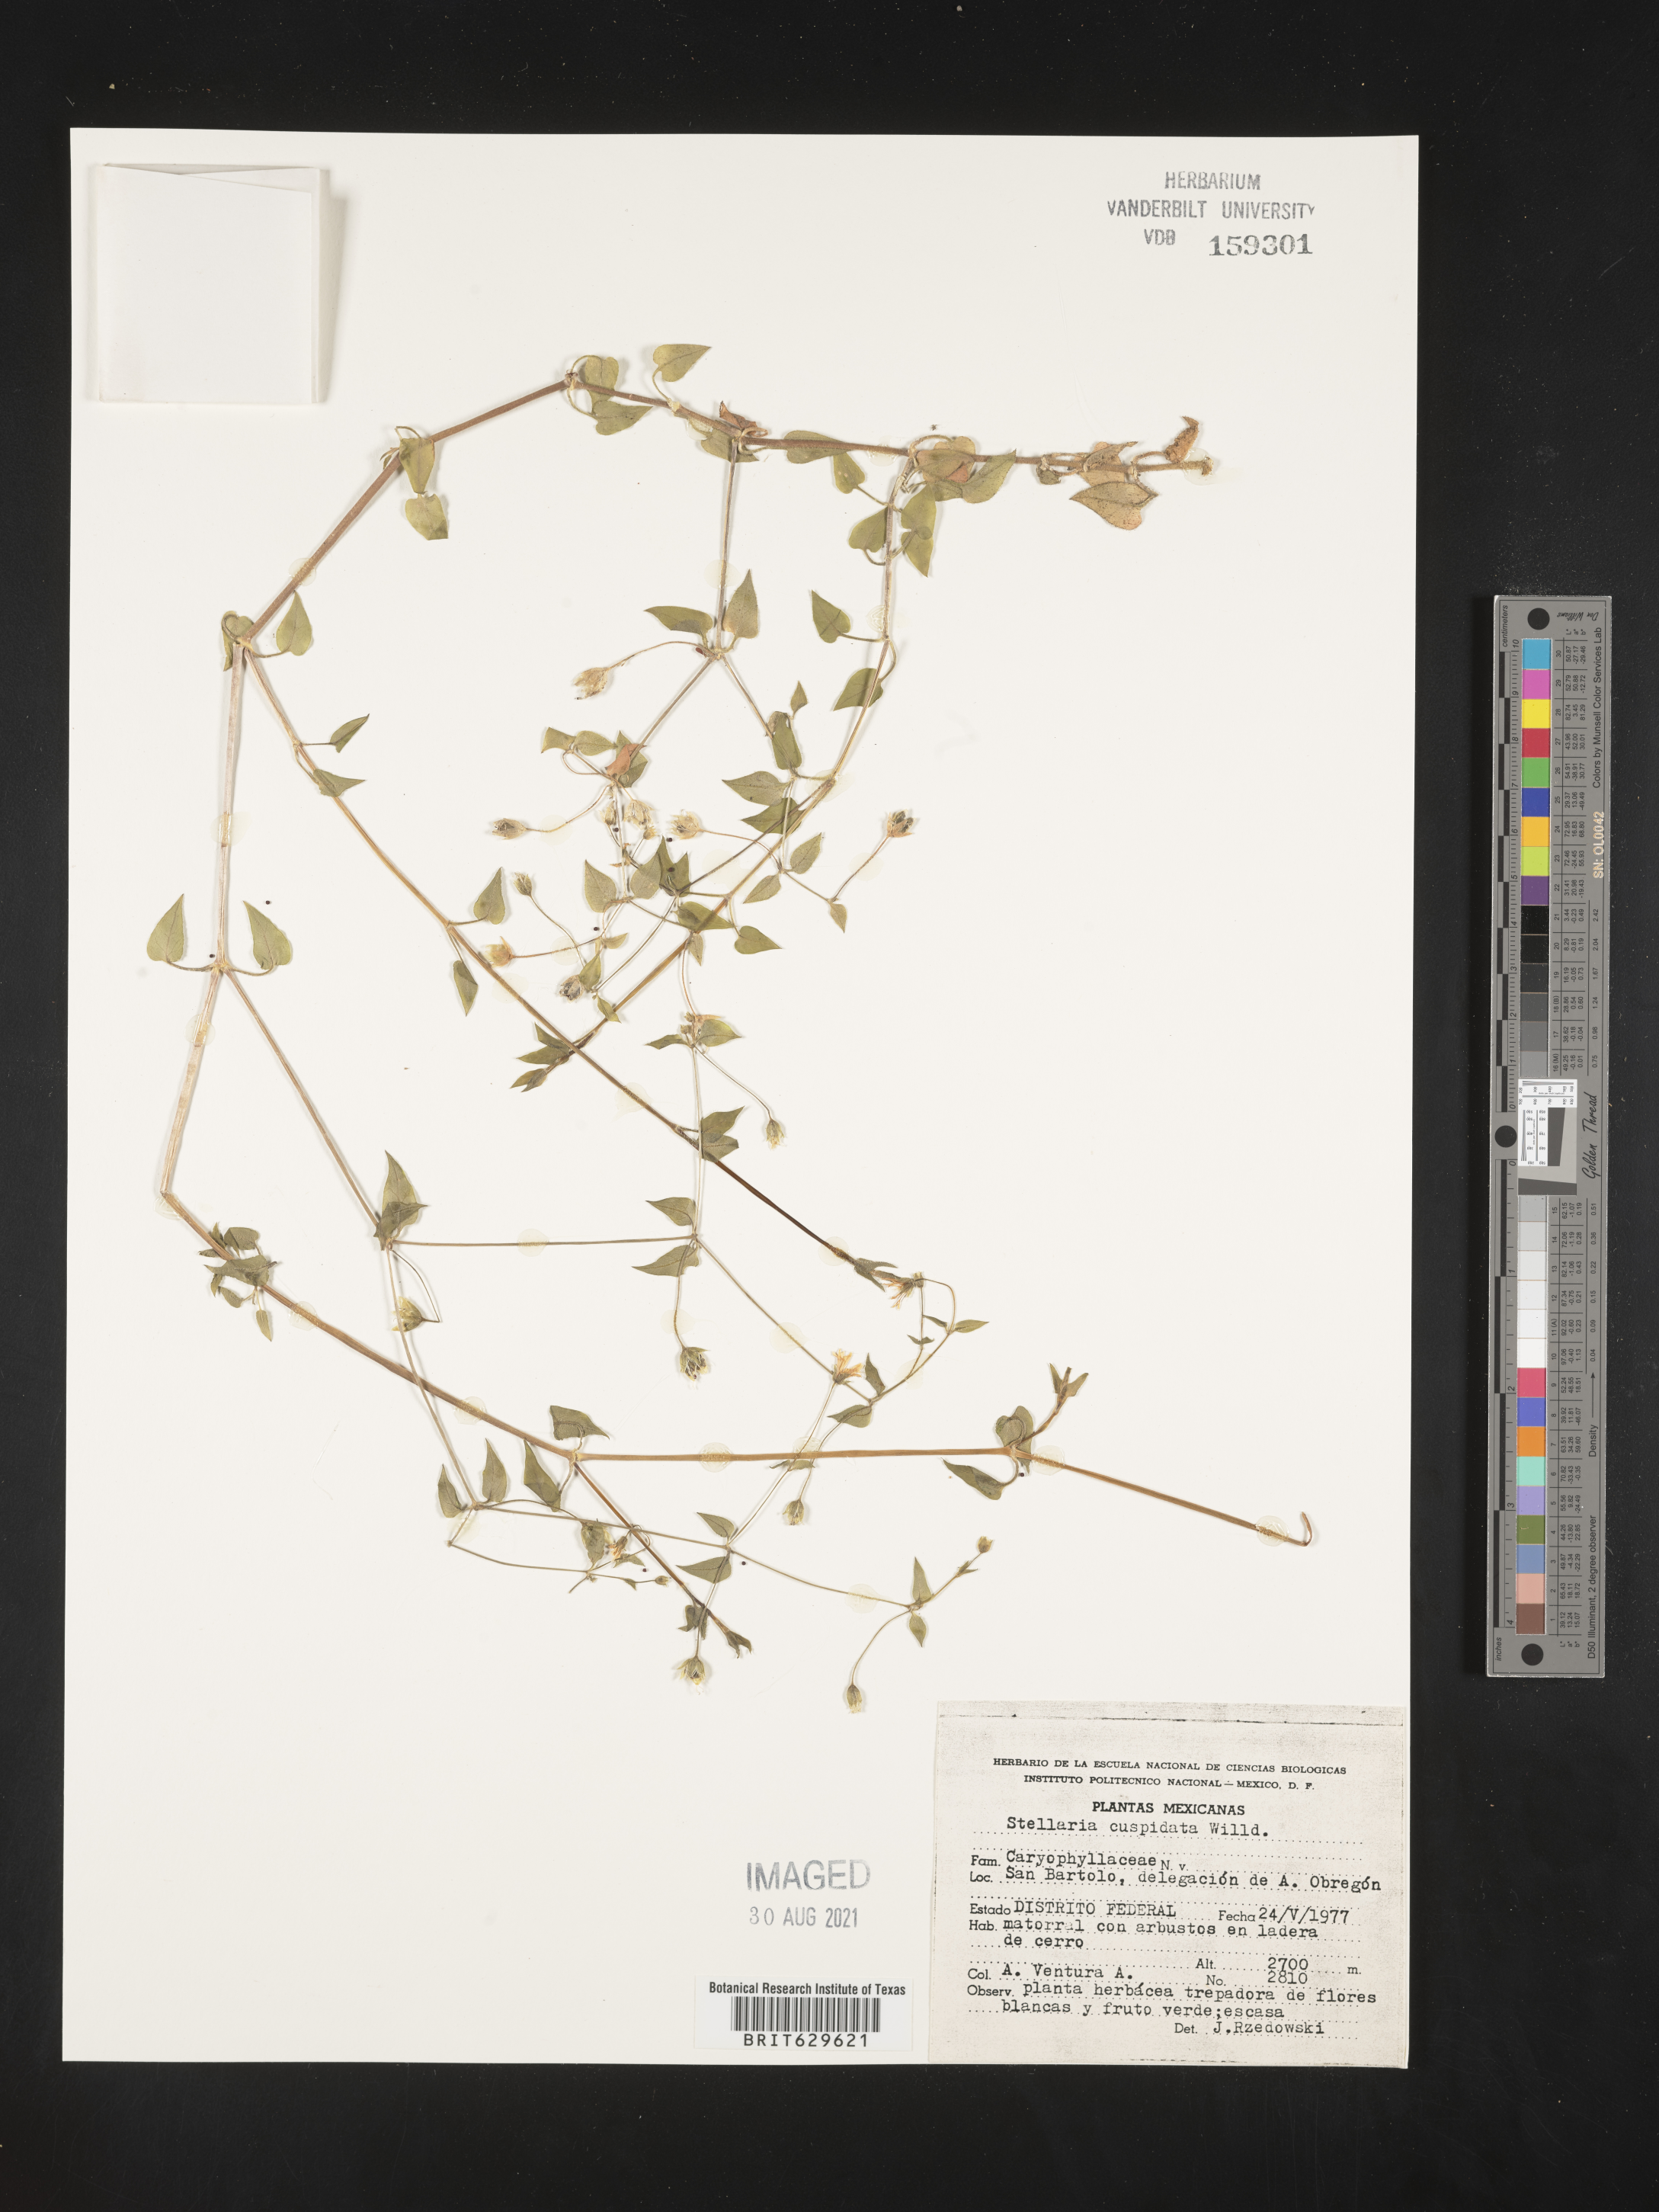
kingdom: Plantae
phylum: Tracheophyta
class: Magnoliopsida
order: Caryophyllales
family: Caryophyllaceae
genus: Stellaria
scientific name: Stellaria
